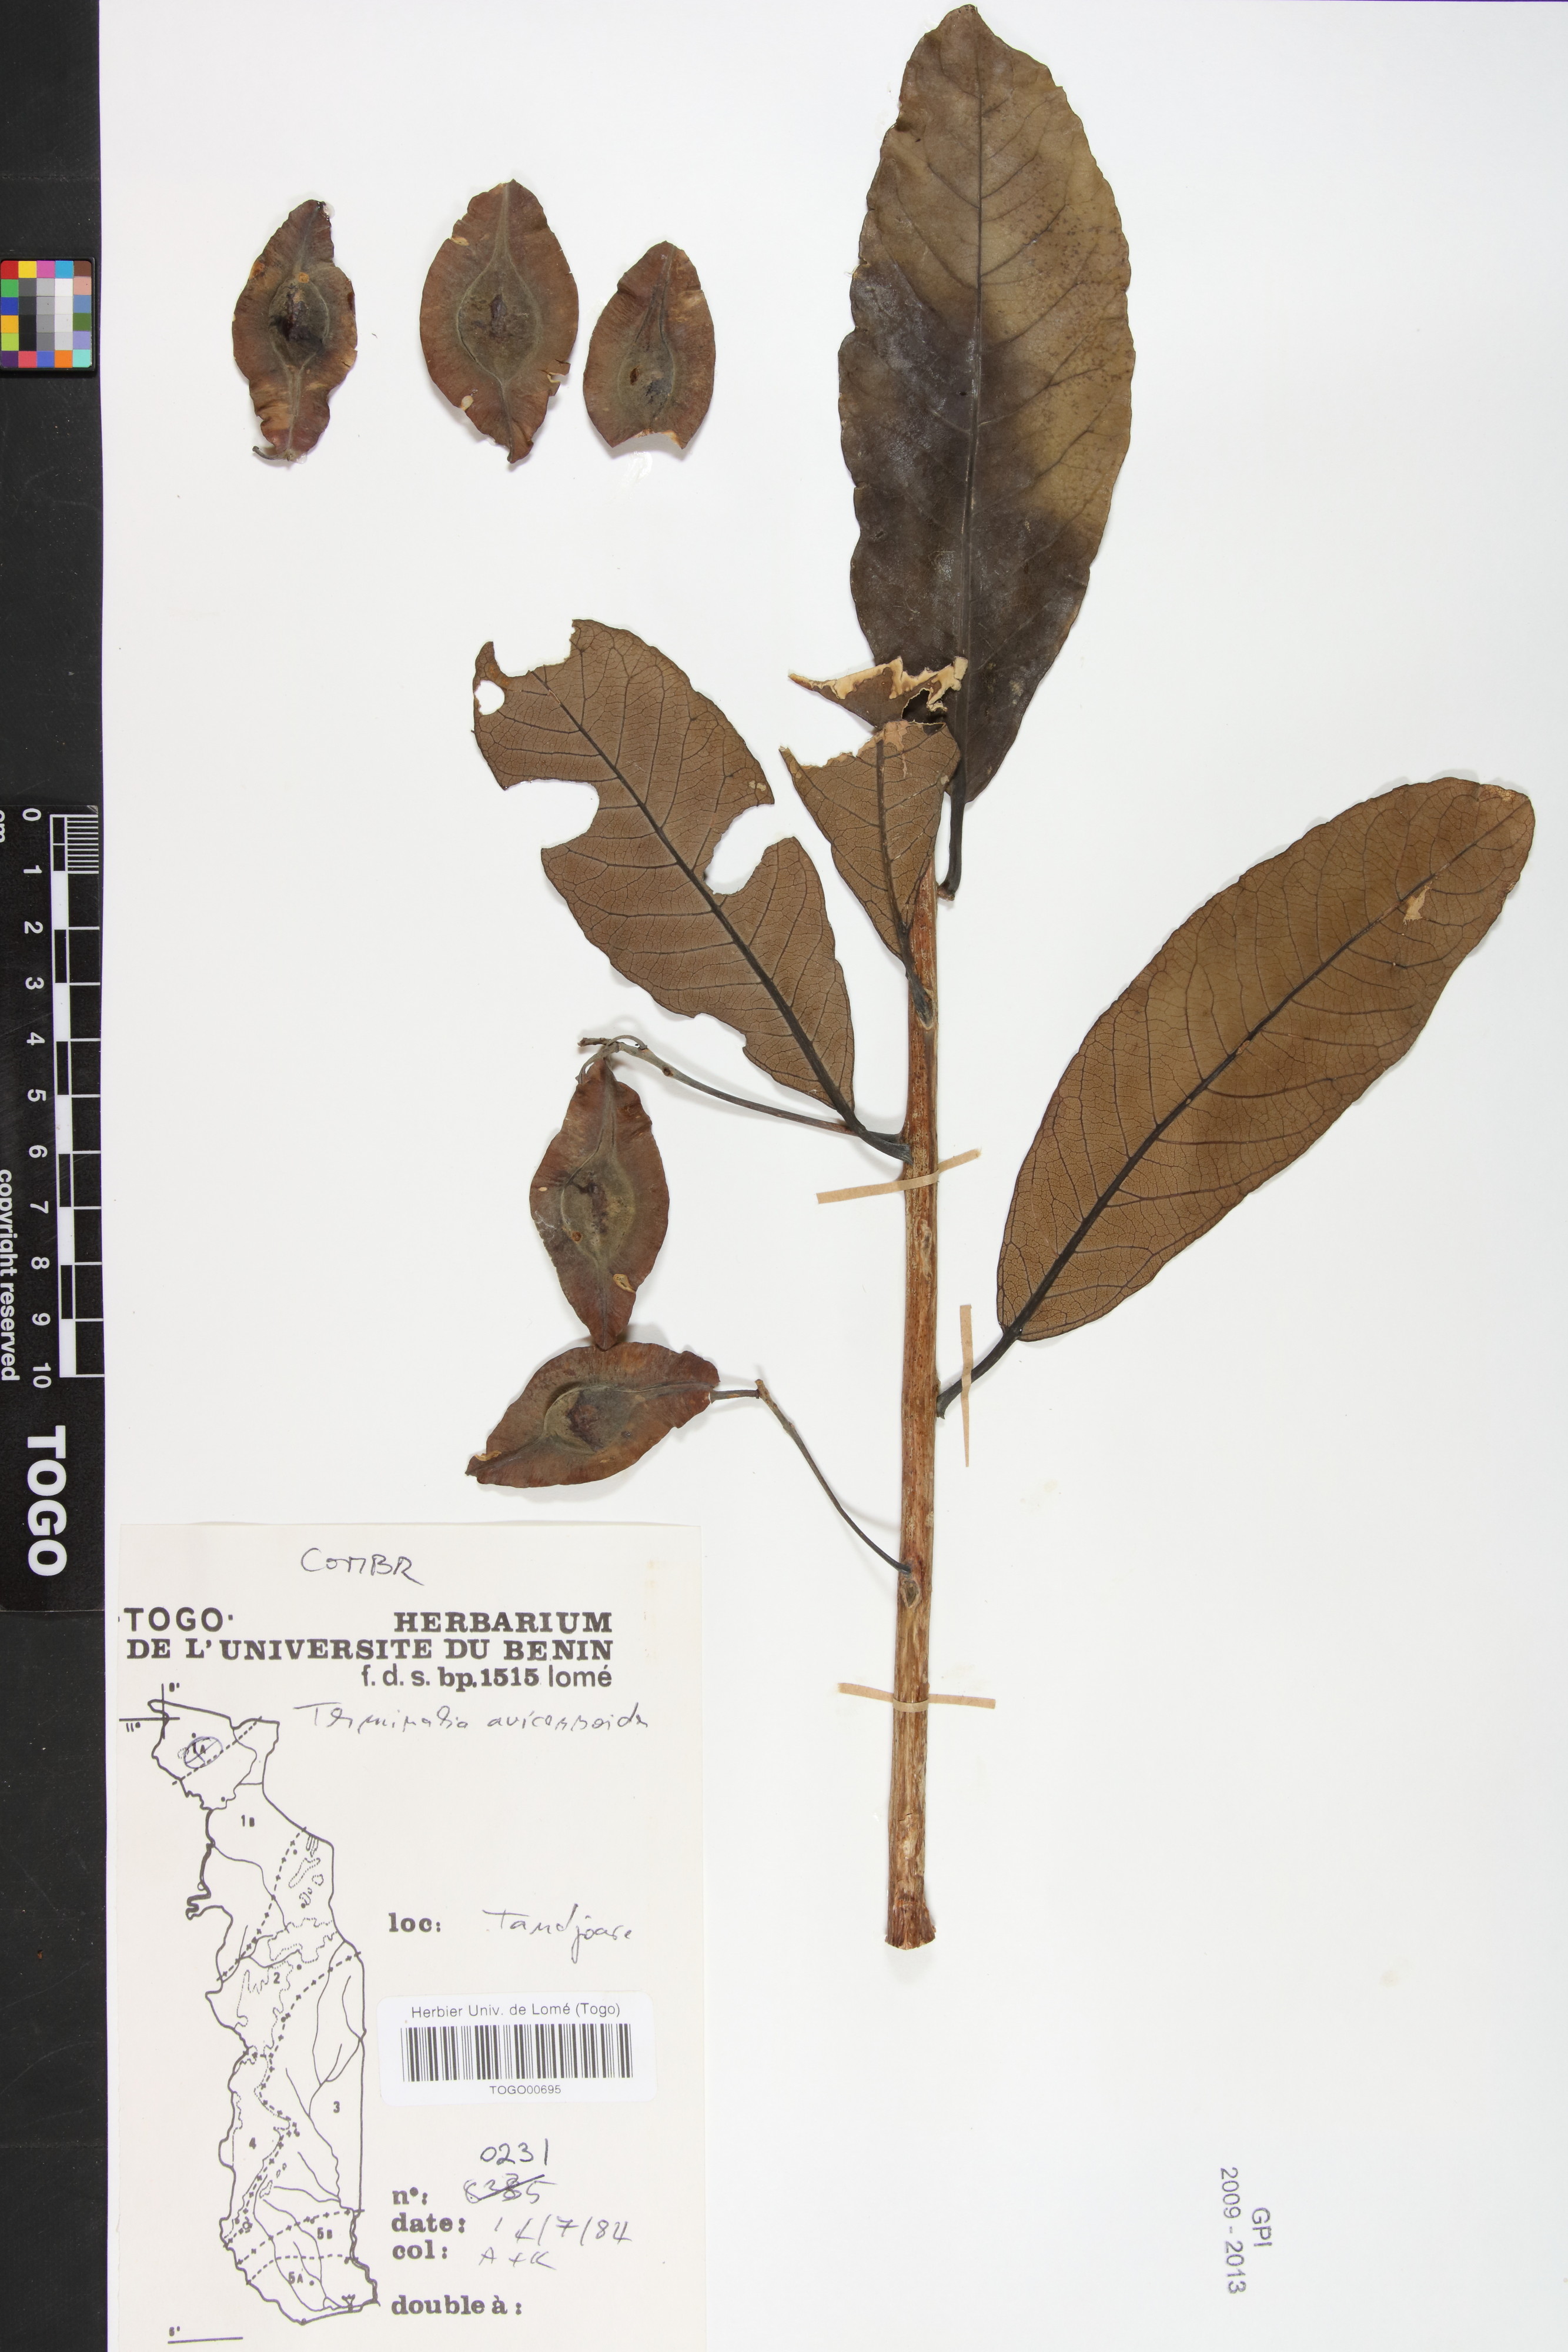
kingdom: Plantae
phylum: Tracheophyta
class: Magnoliopsida
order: Myrtales
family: Combretaceae
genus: Terminalia
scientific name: Terminalia avicennioides
